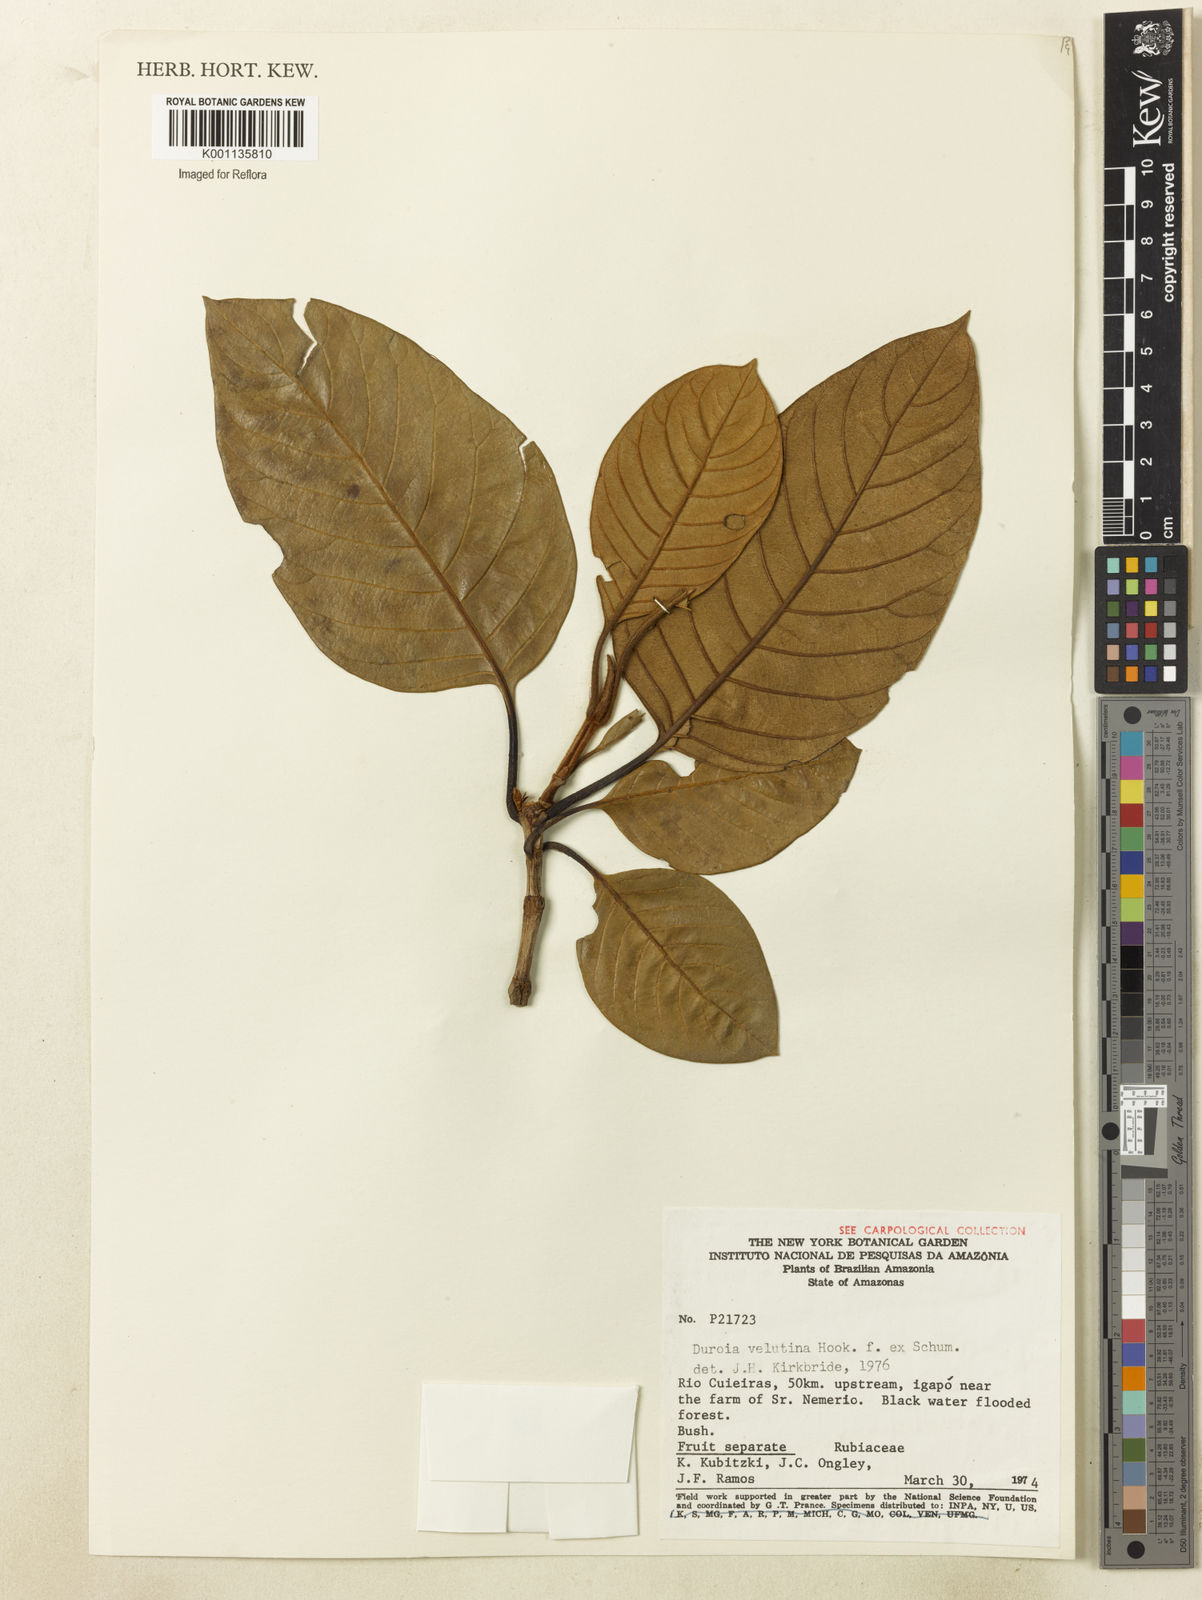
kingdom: Plantae
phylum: Tracheophyta
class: Magnoliopsida
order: Gentianales
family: Rubiaceae
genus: Duroia
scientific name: Duroia velutina
